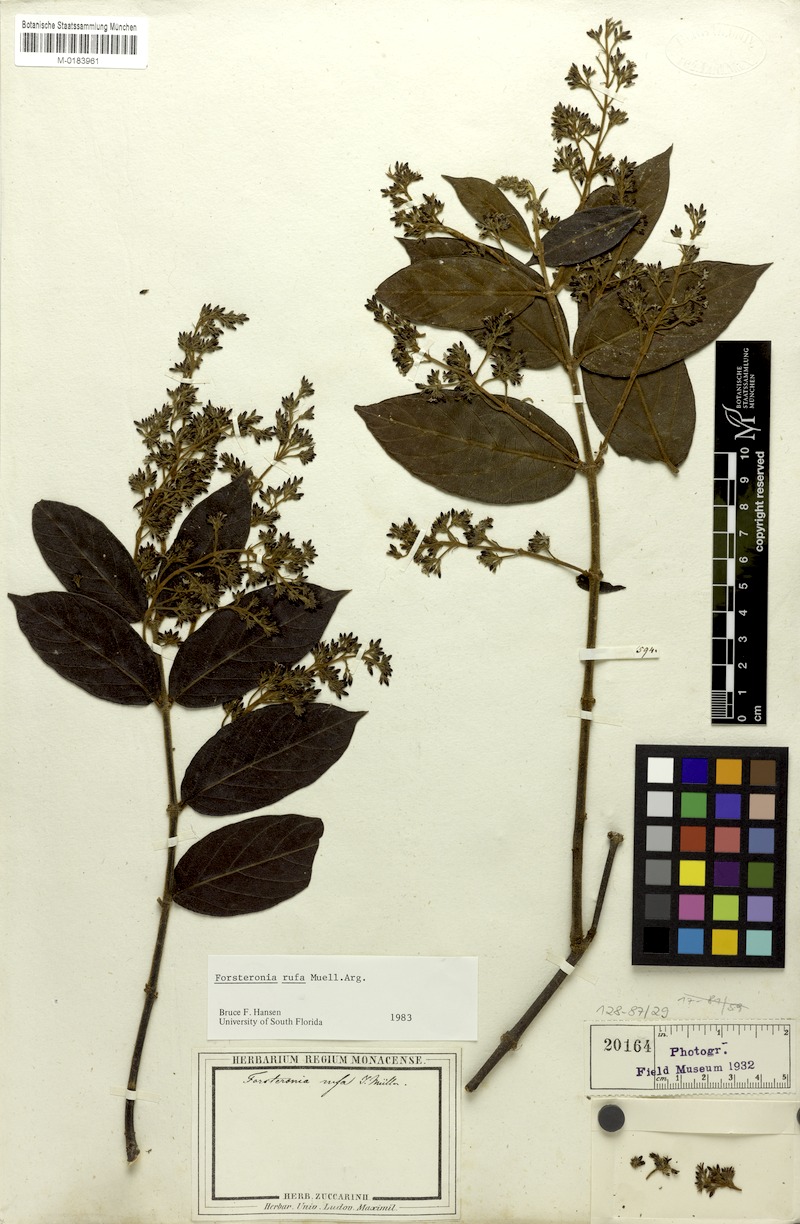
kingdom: Plantae
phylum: Tracheophyta
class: Magnoliopsida
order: Gentianales
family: Apocynaceae
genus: Forsteronia
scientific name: Forsteronia rufa
